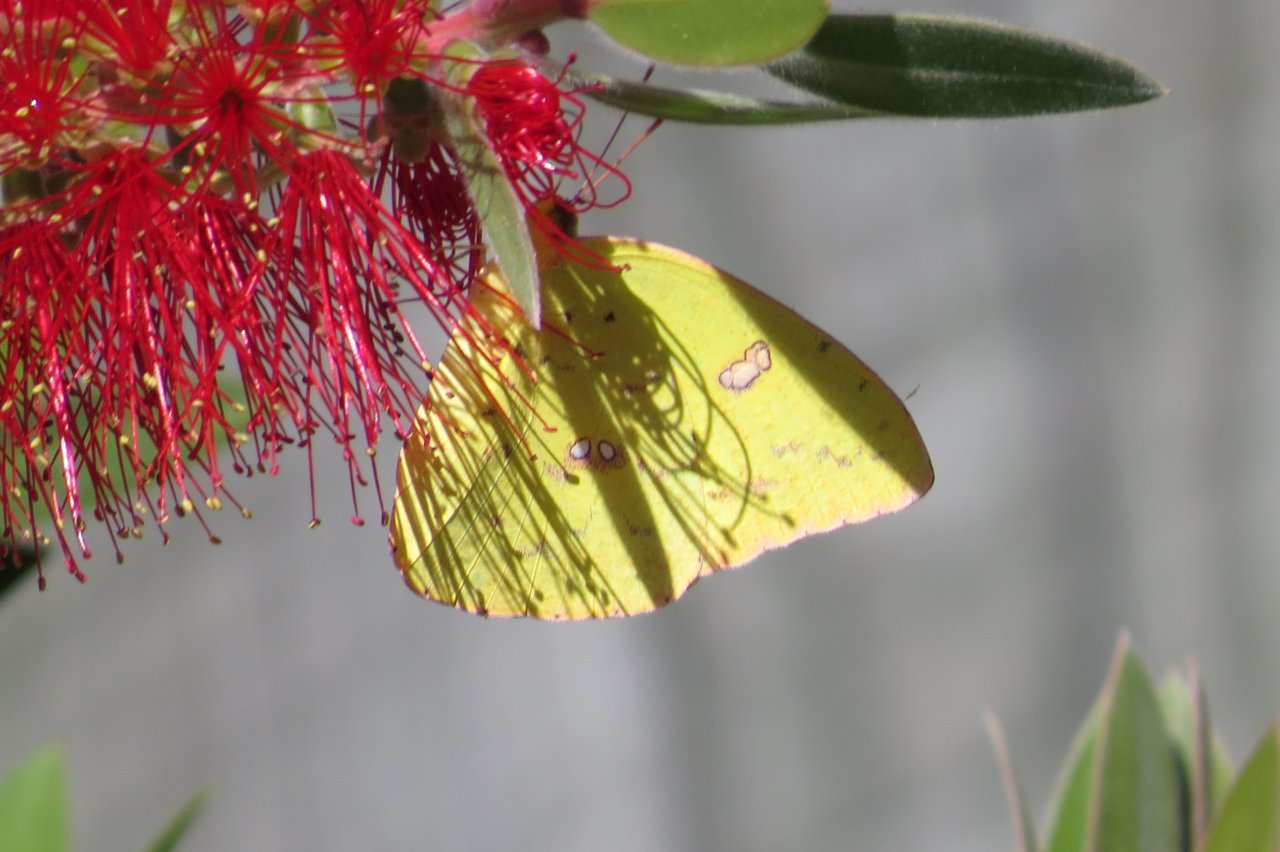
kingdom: Animalia
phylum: Arthropoda
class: Insecta
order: Lepidoptera
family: Pieridae
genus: Phoebis
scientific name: Phoebis sennae
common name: Cloudless Sulphur
